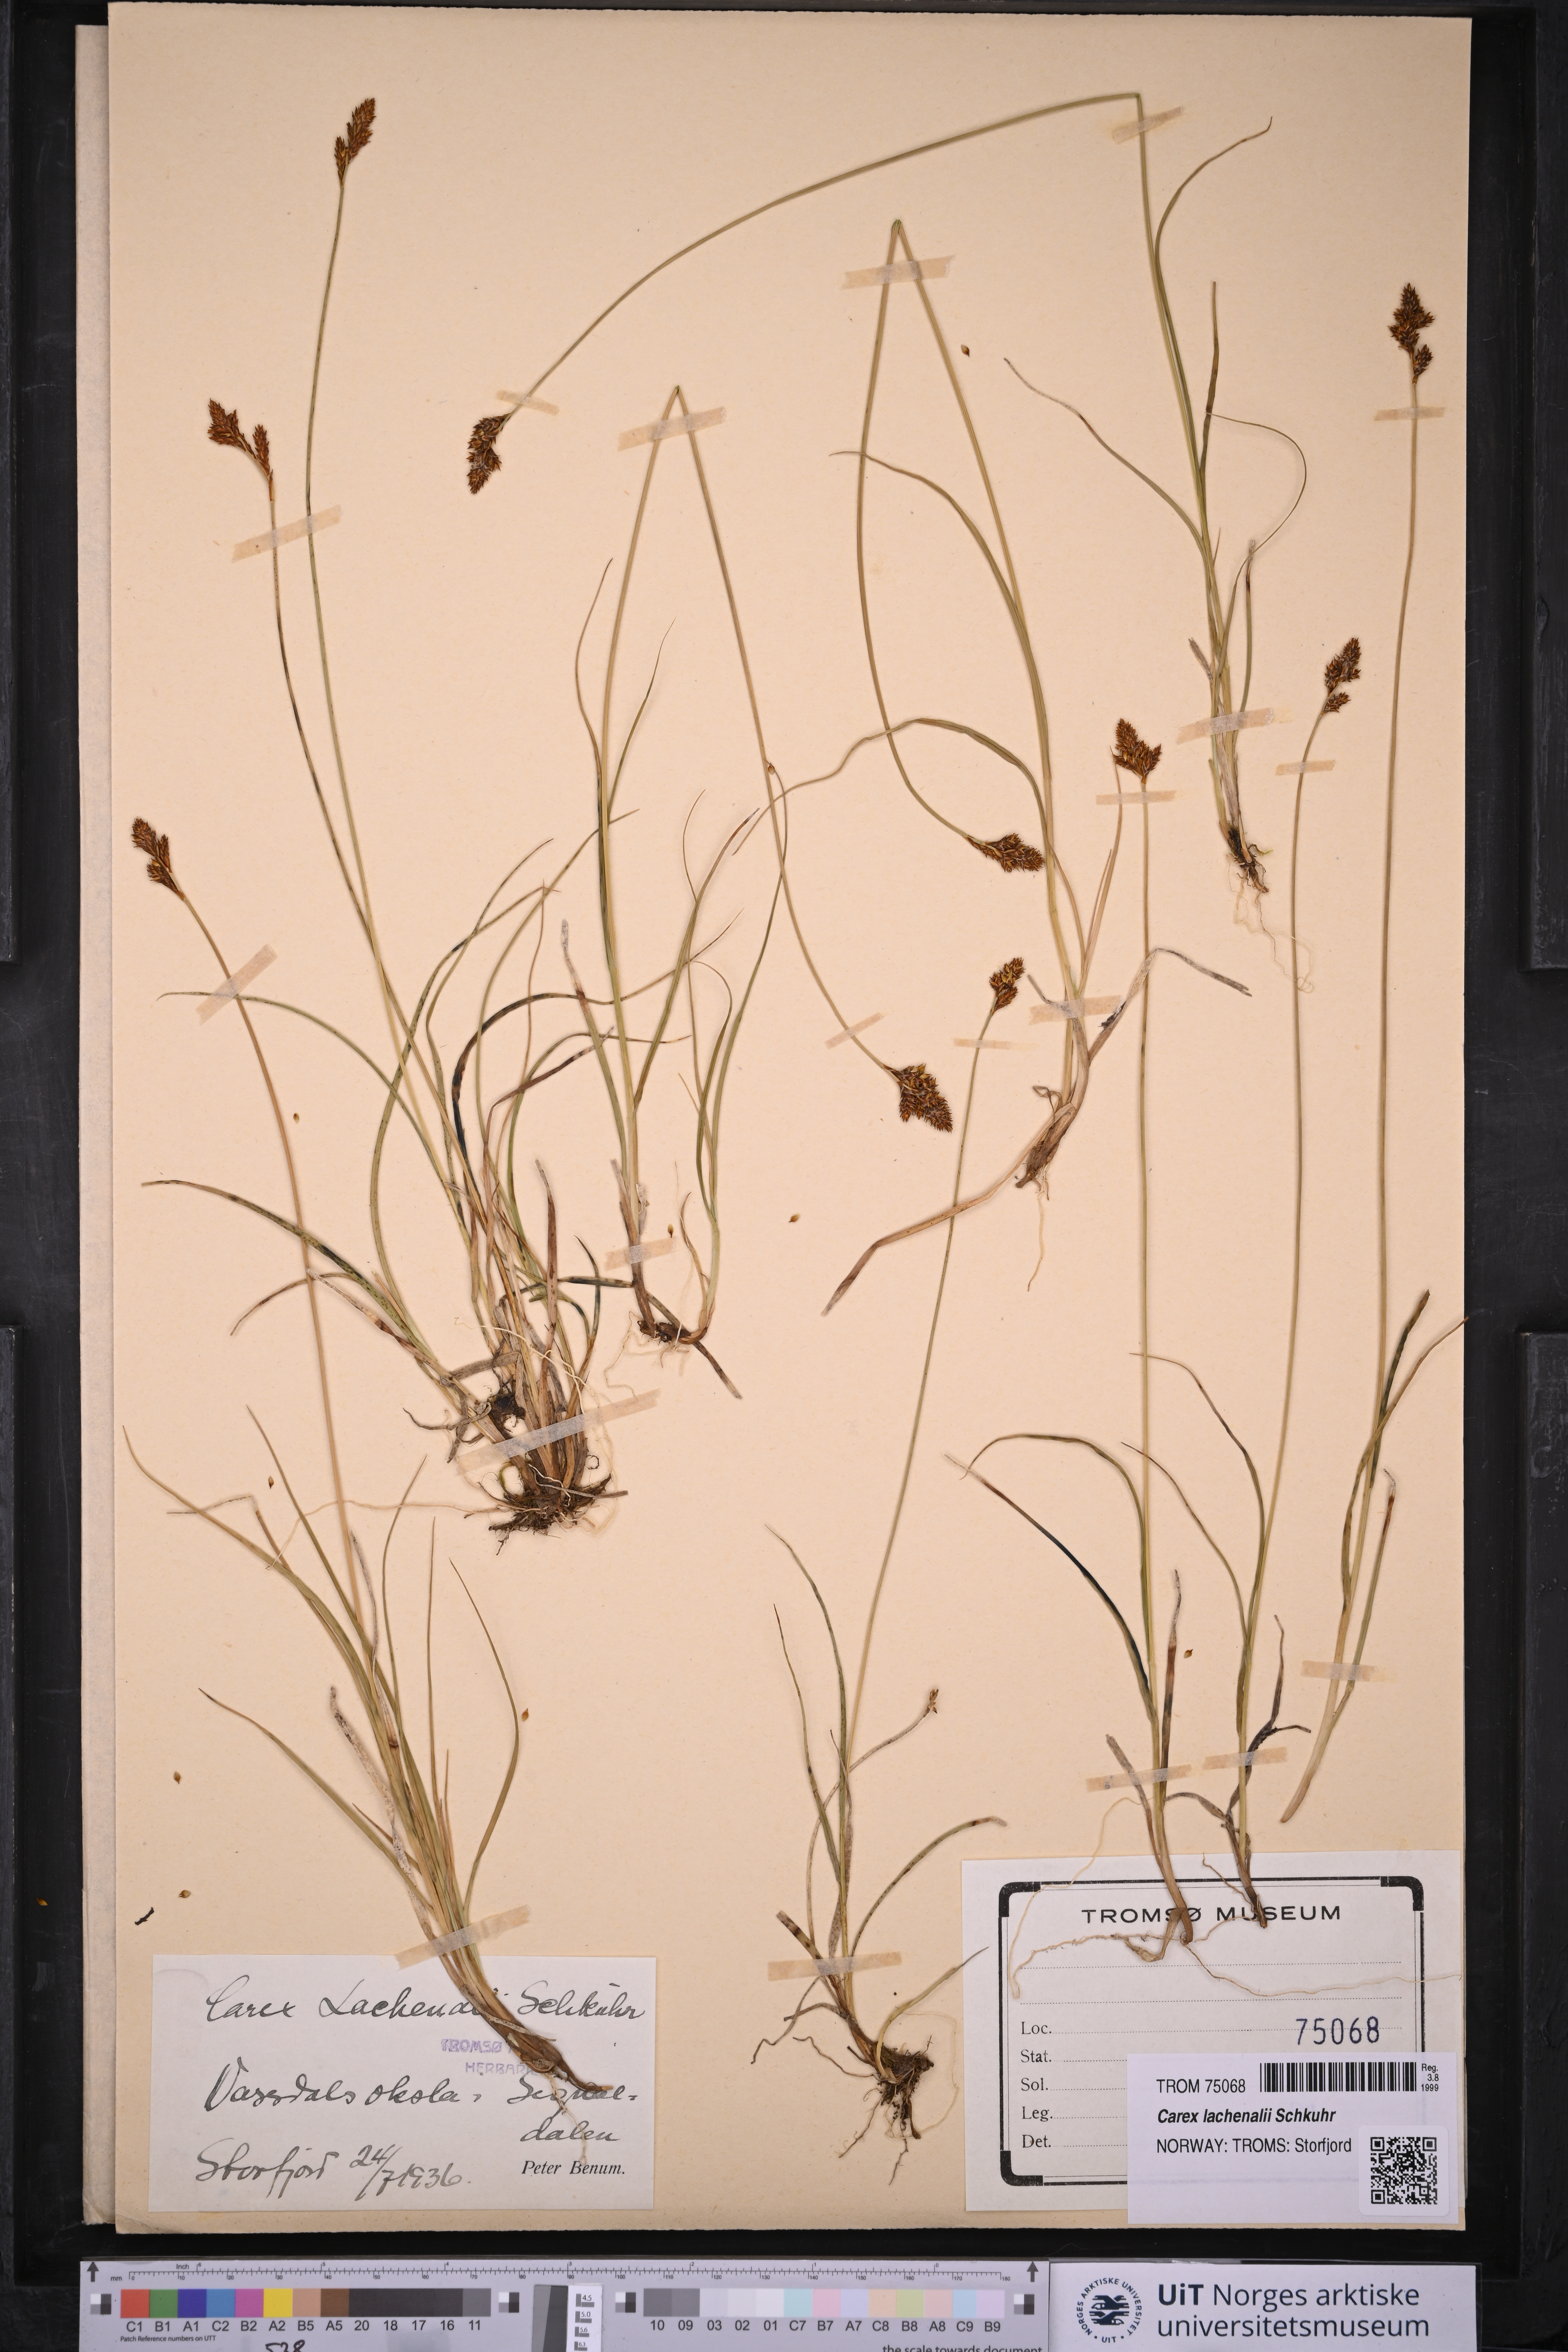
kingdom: Plantae
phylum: Tracheophyta
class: Liliopsida
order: Poales
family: Cyperaceae
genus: Carex
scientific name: Carex lachenalii
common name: Hare's-foot sedge
